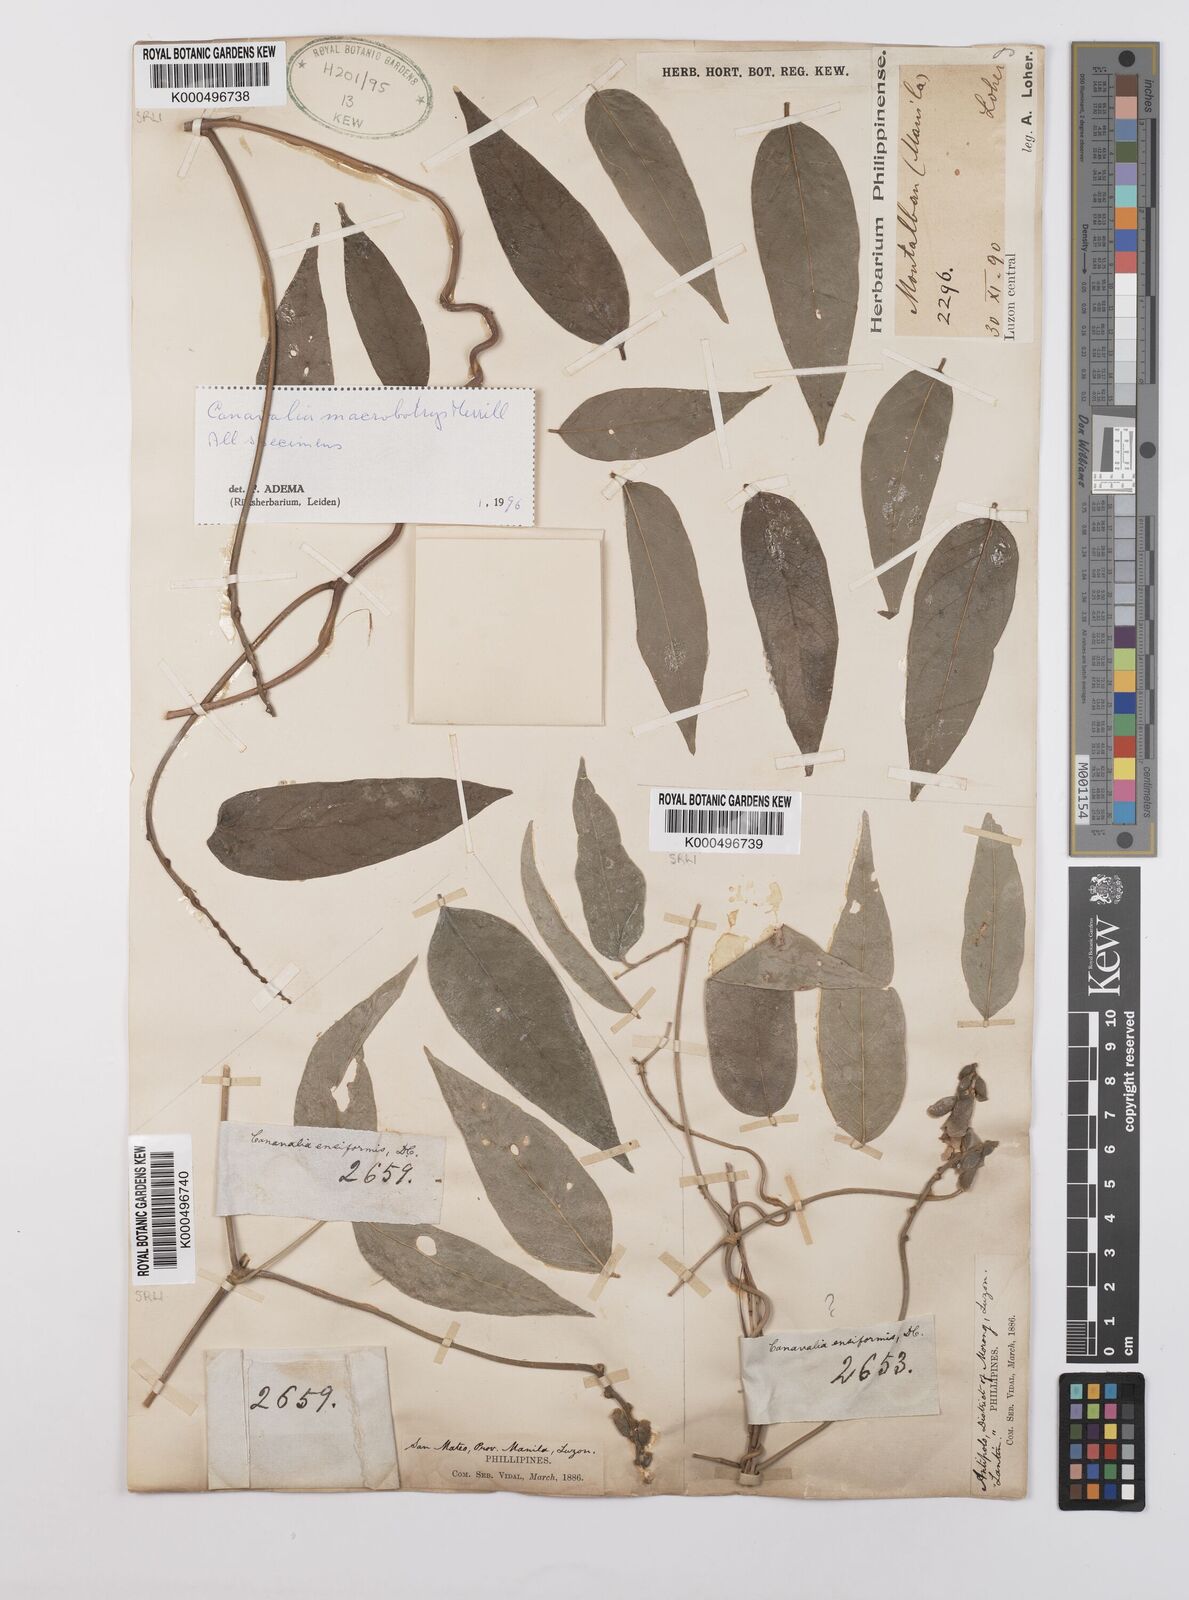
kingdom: Plantae
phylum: Tracheophyta
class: Magnoliopsida
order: Fabales
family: Fabaceae
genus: Canavalia
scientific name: Canavalia macrobotrys
